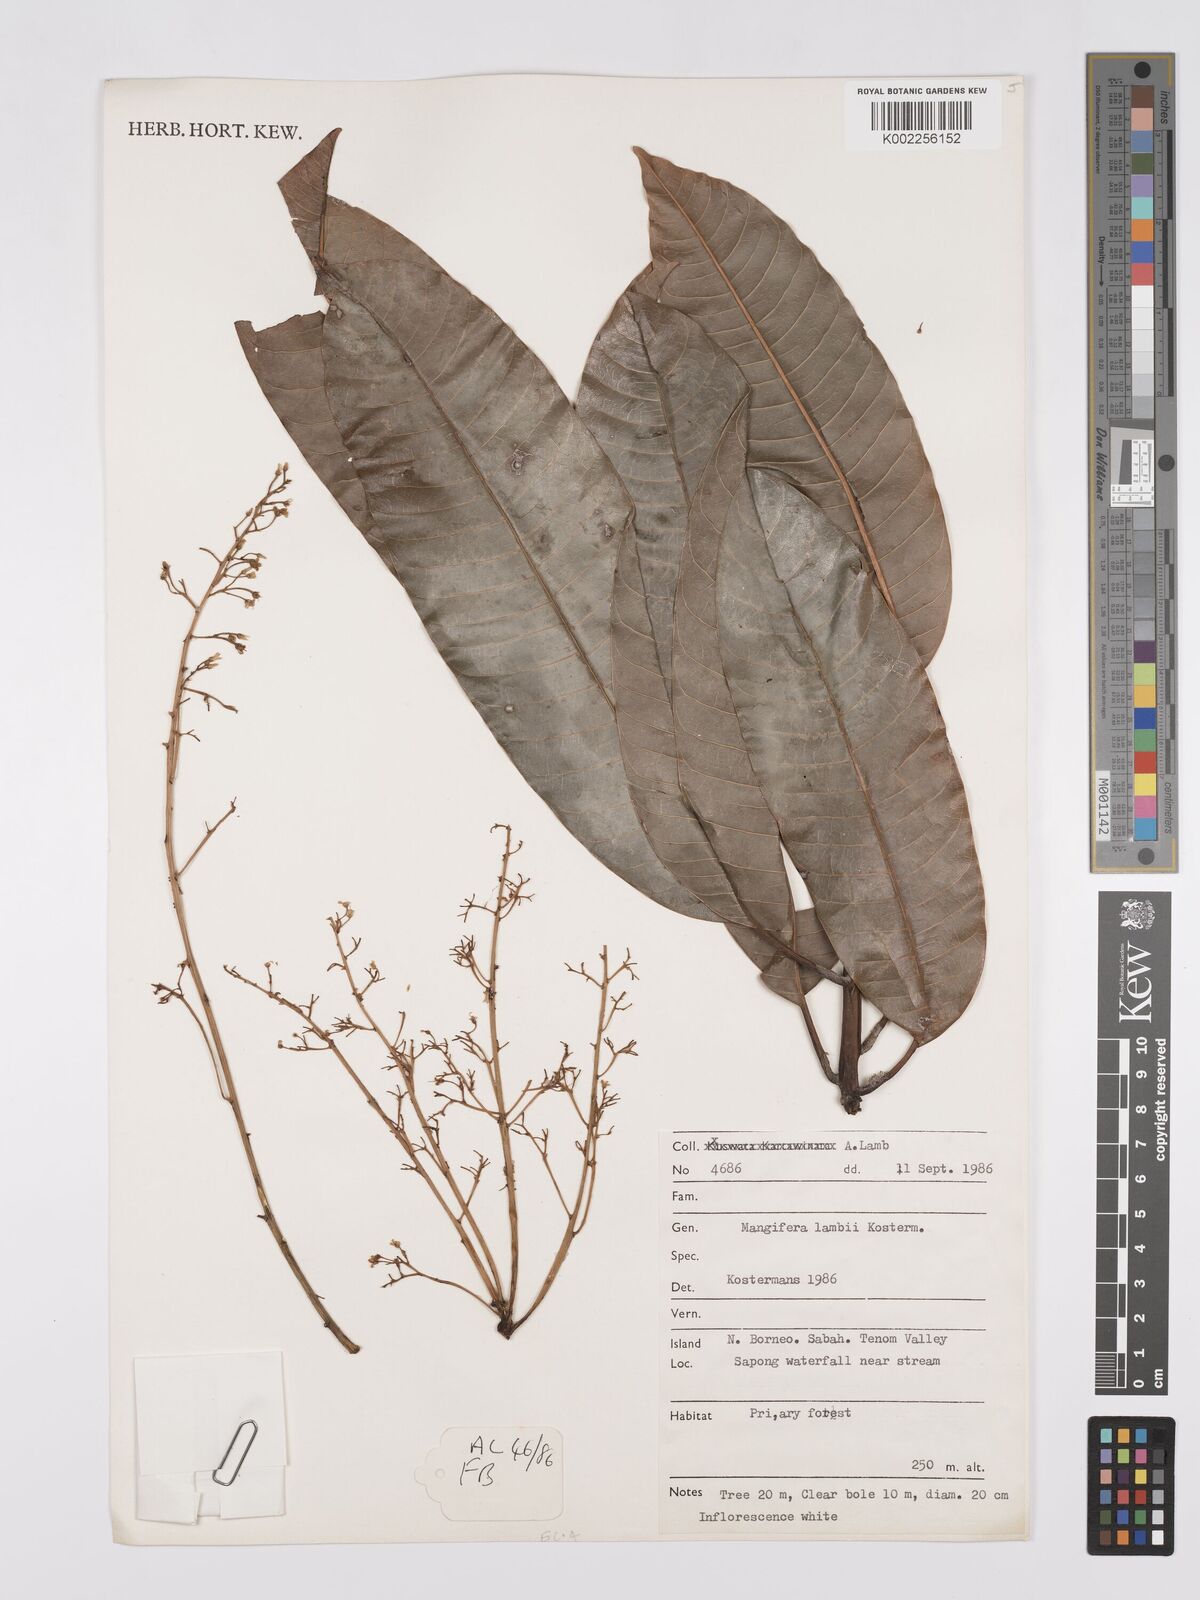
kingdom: Plantae
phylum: Tracheophyta
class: Magnoliopsida
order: Sapindales
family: Anacardiaceae
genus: Mangifera
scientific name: Mangifera
